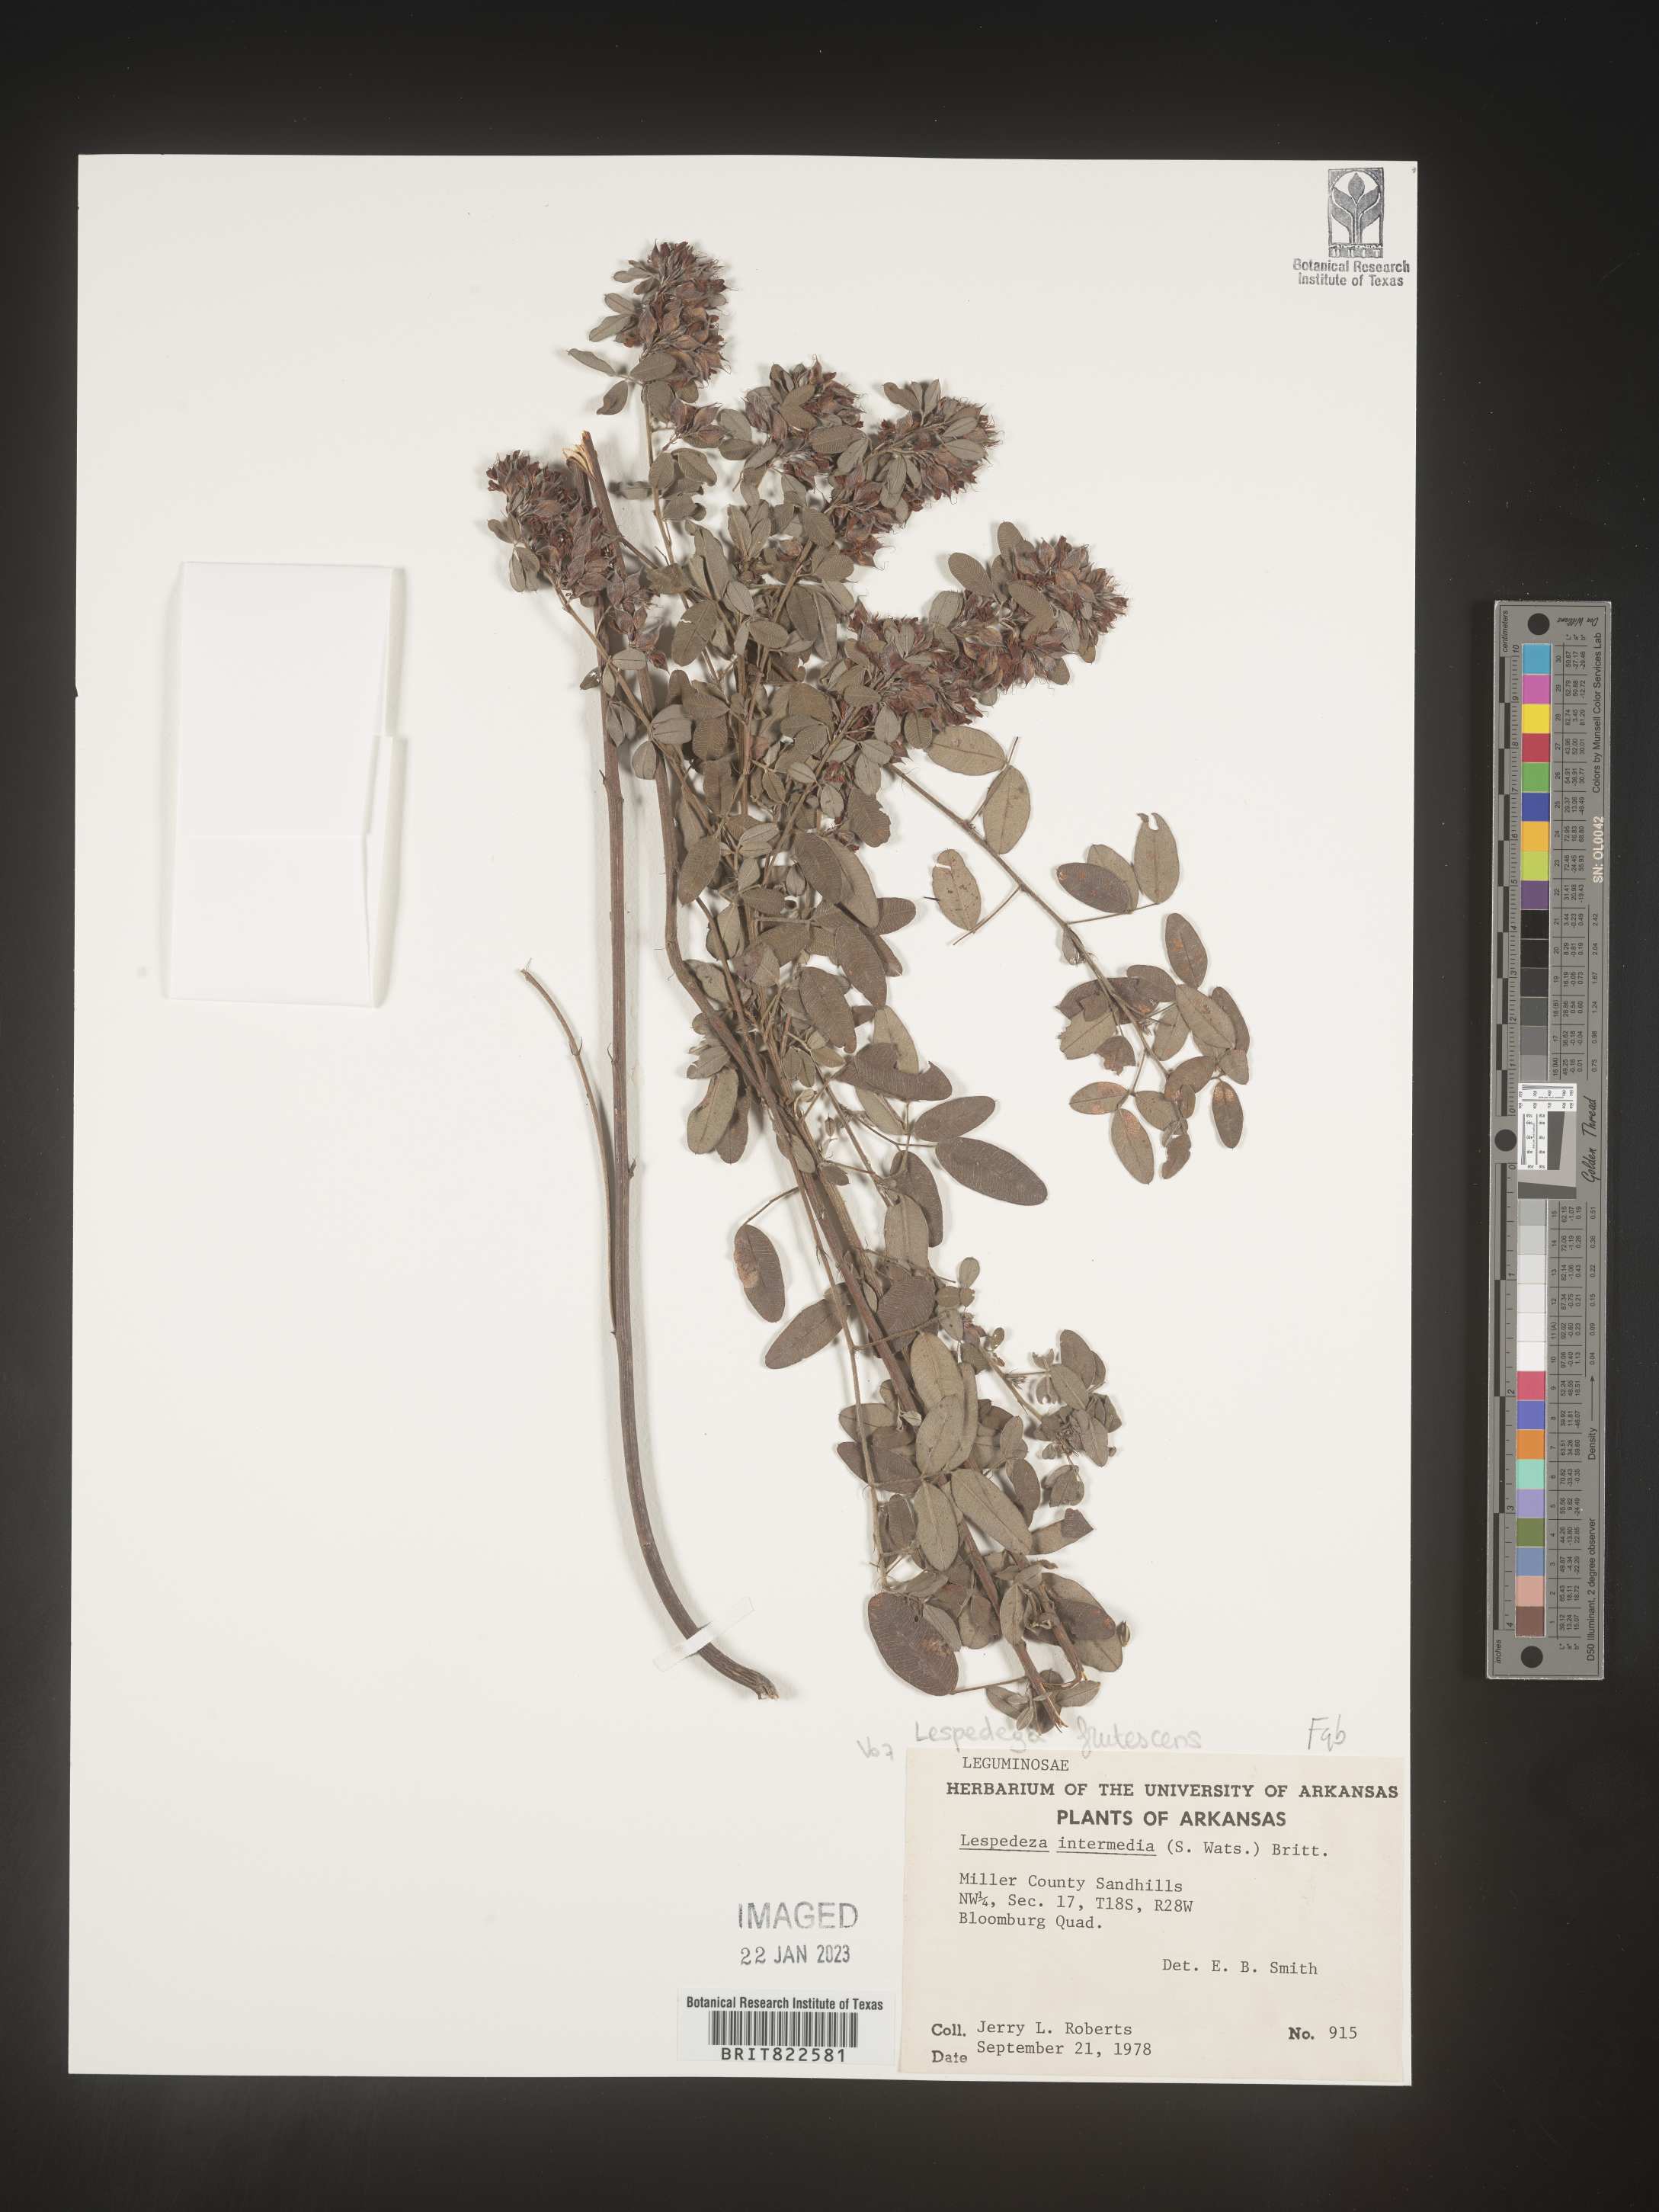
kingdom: Plantae
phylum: Tracheophyta
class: Magnoliopsida
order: Fabales
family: Fabaceae
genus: Lespedeza
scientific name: Lespedeza violacea
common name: Wand bush-clover
